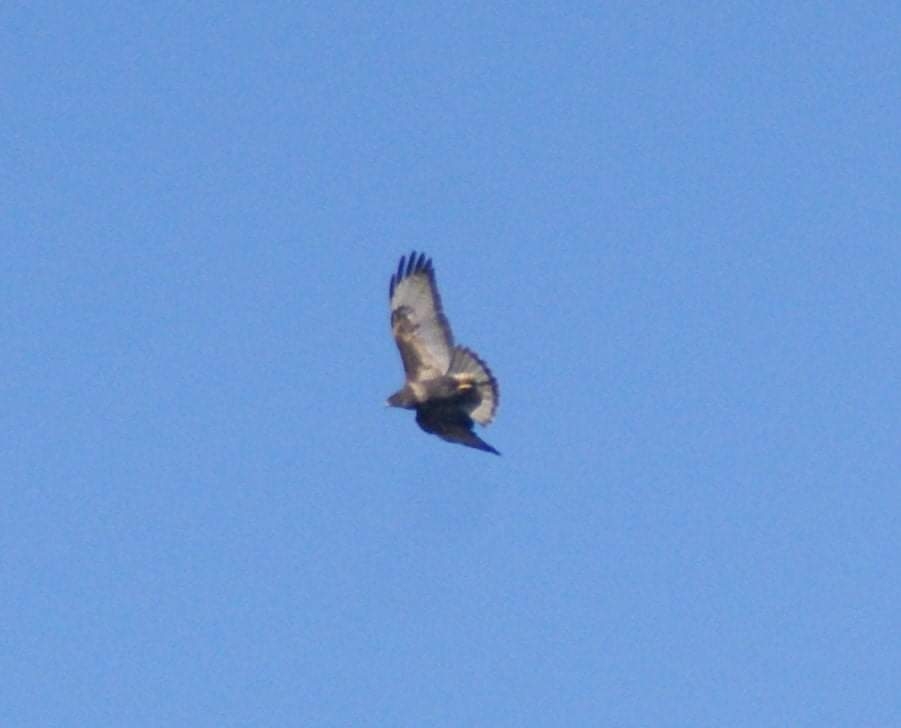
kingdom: Animalia
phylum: Chordata
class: Aves
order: Accipitriformes
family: Accipitridae
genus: Buteo
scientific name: Buteo buteo
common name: Musvåge
